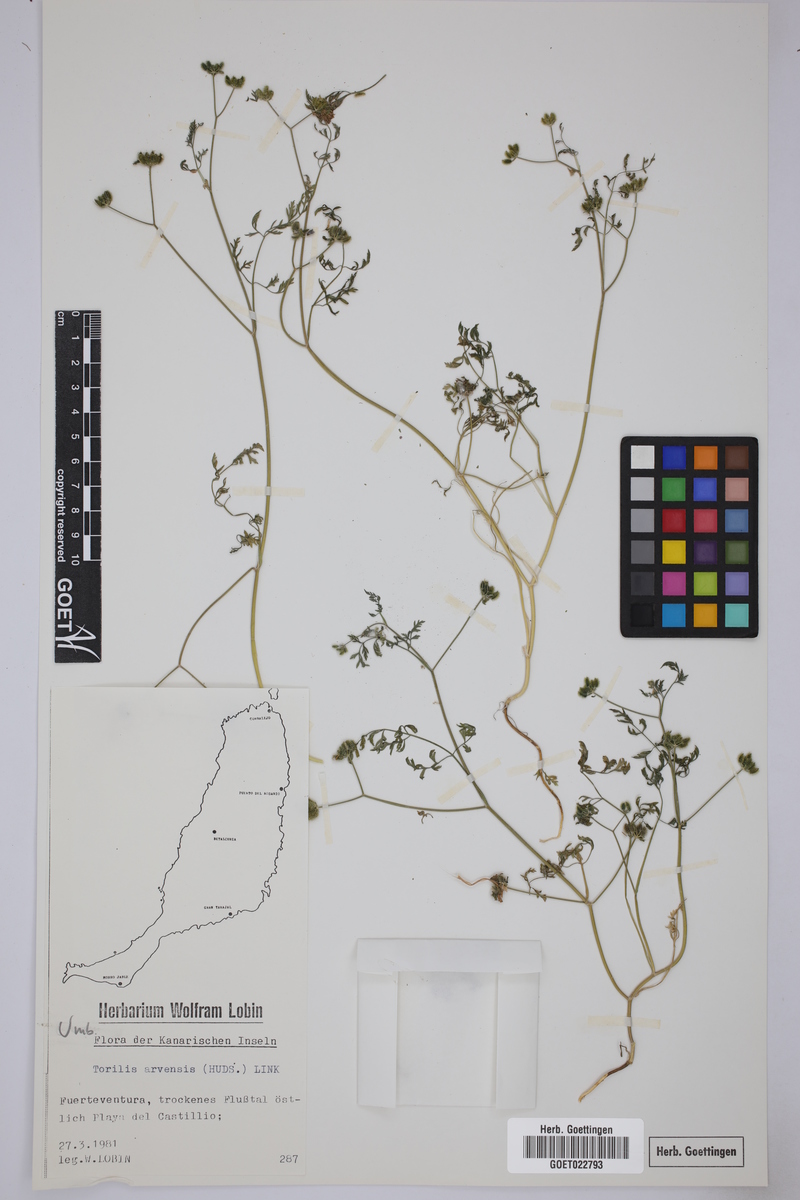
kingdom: Plantae
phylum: Tracheophyta
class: Magnoliopsida
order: Apiales
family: Apiaceae
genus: Torilis
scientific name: Torilis arvensis
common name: Spreading hedge-parsley
